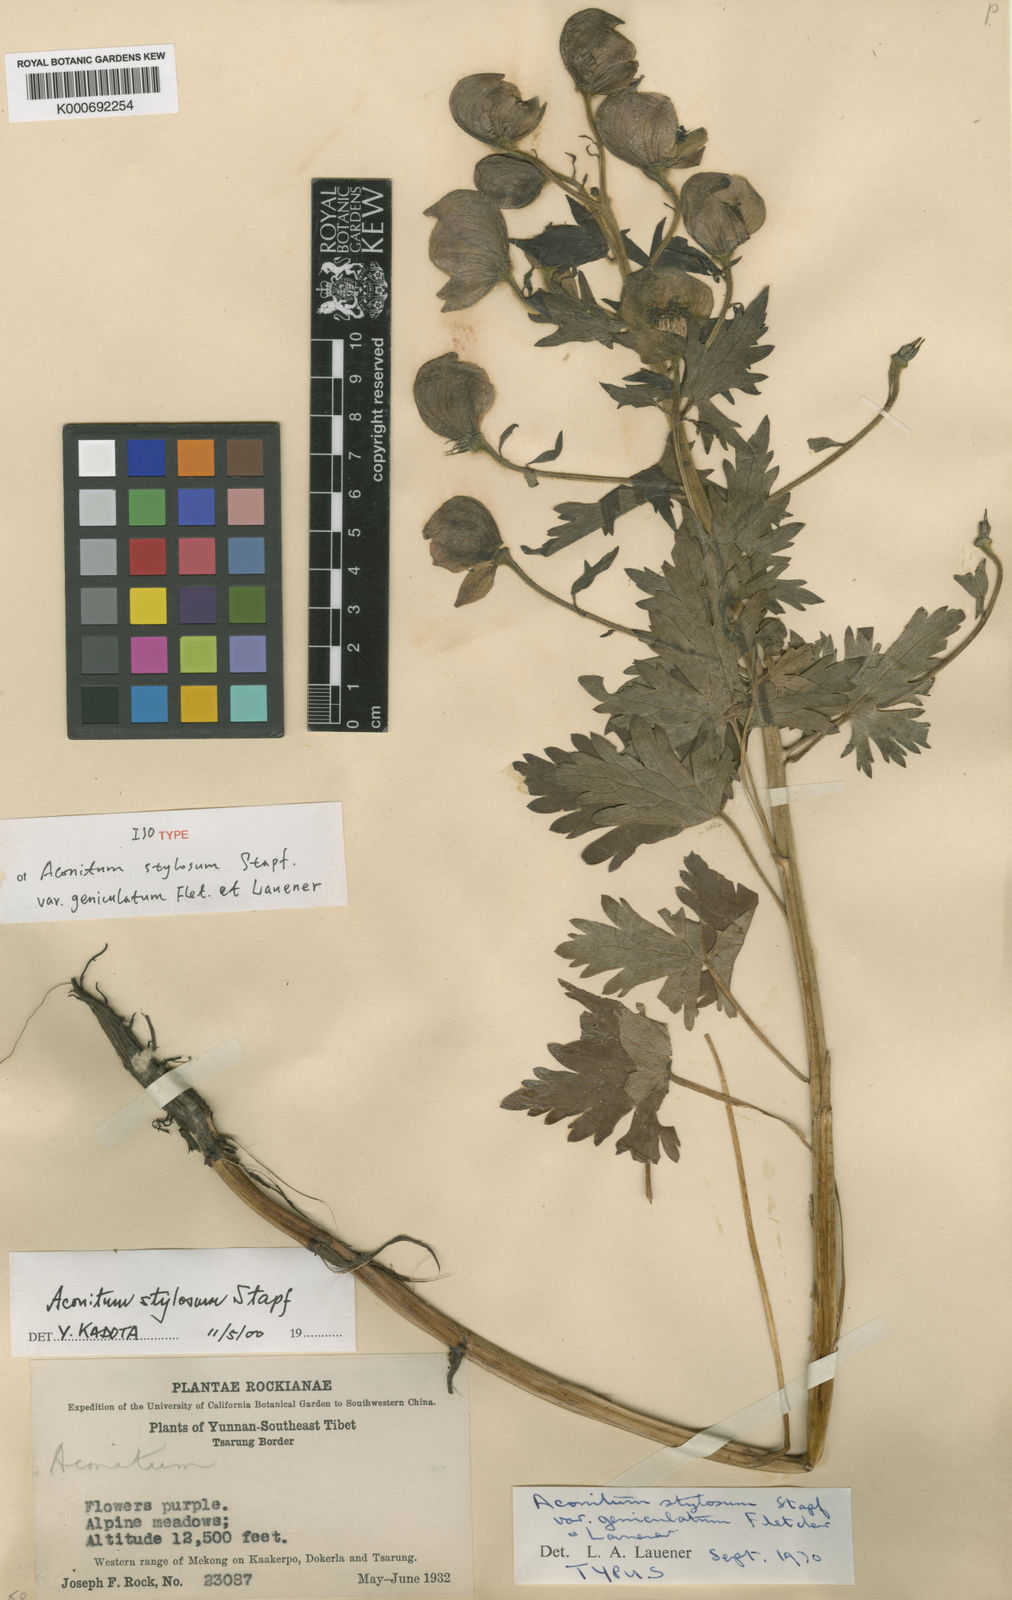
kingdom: Plantae
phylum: Tracheophyta
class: Magnoliopsida
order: Ranunculales
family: Ranunculaceae
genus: Aconitum
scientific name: Aconitum stylosum
